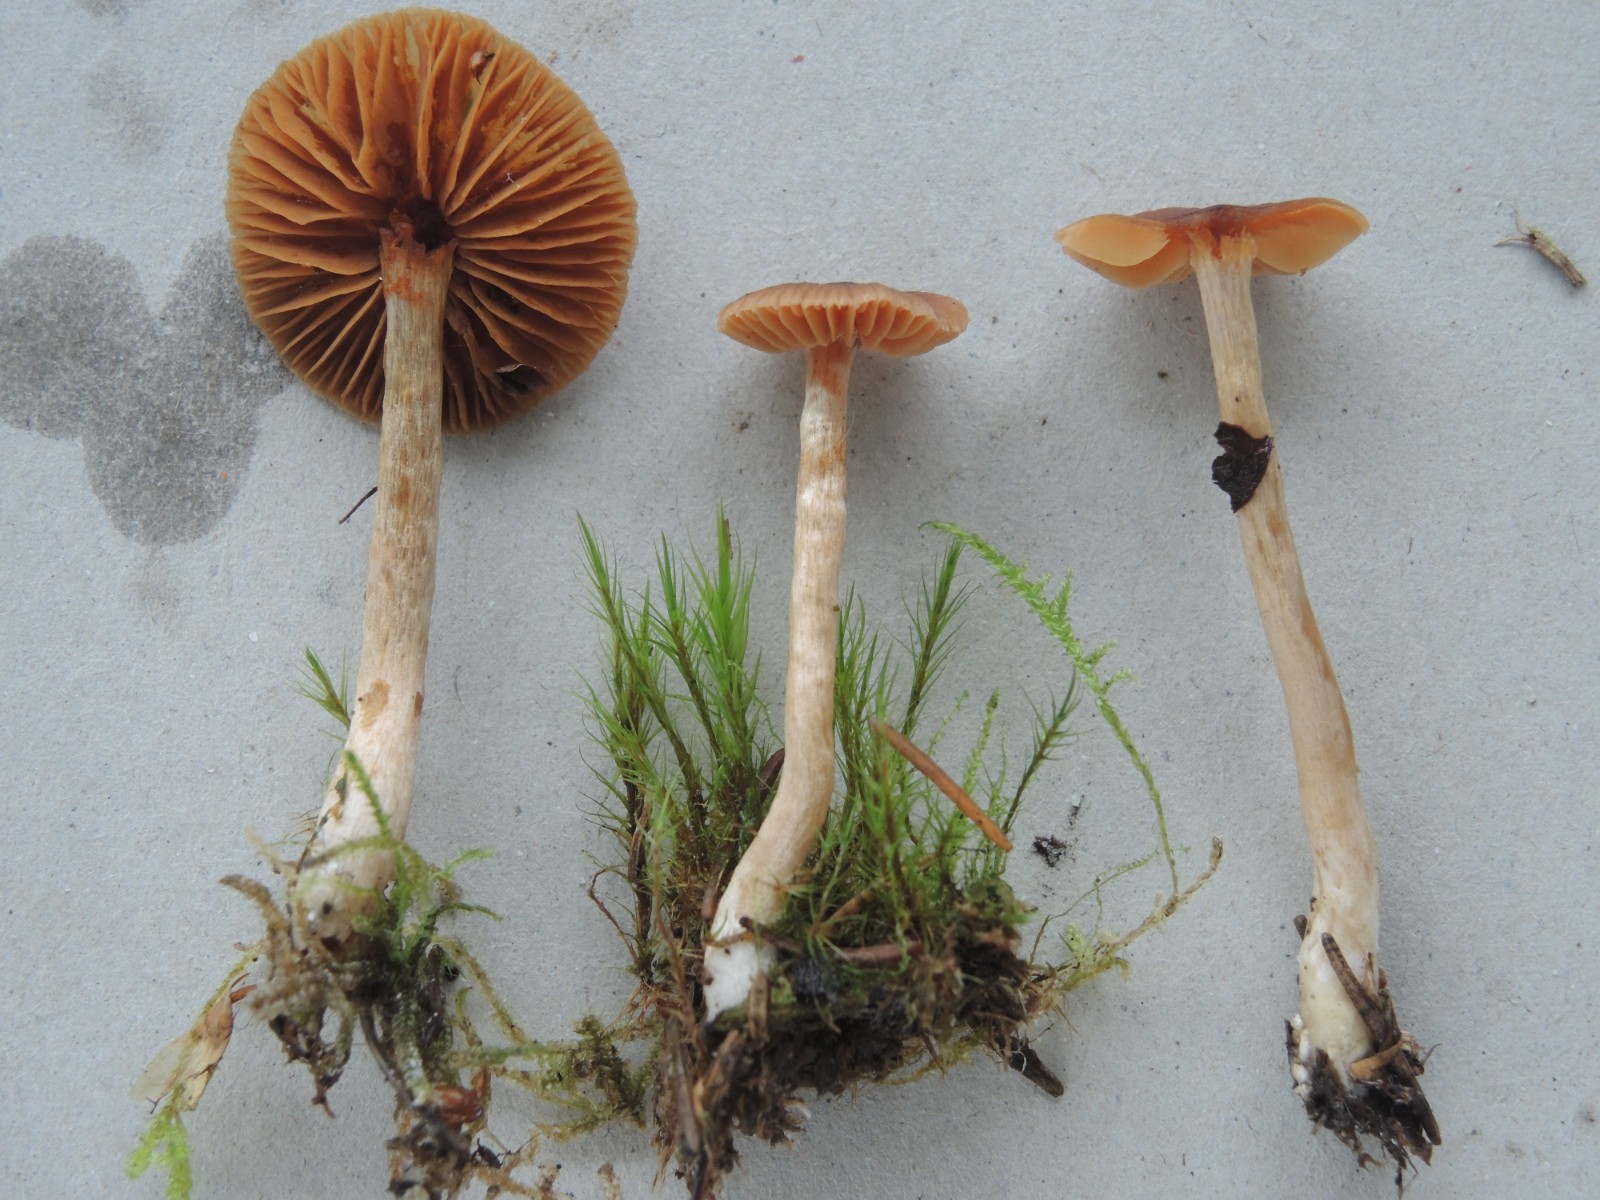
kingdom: Fungi
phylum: Basidiomycota
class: Agaricomycetes
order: Agaricales
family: Cortinariaceae
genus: Cortinarius
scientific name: Cortinarius tenuifulvescens
